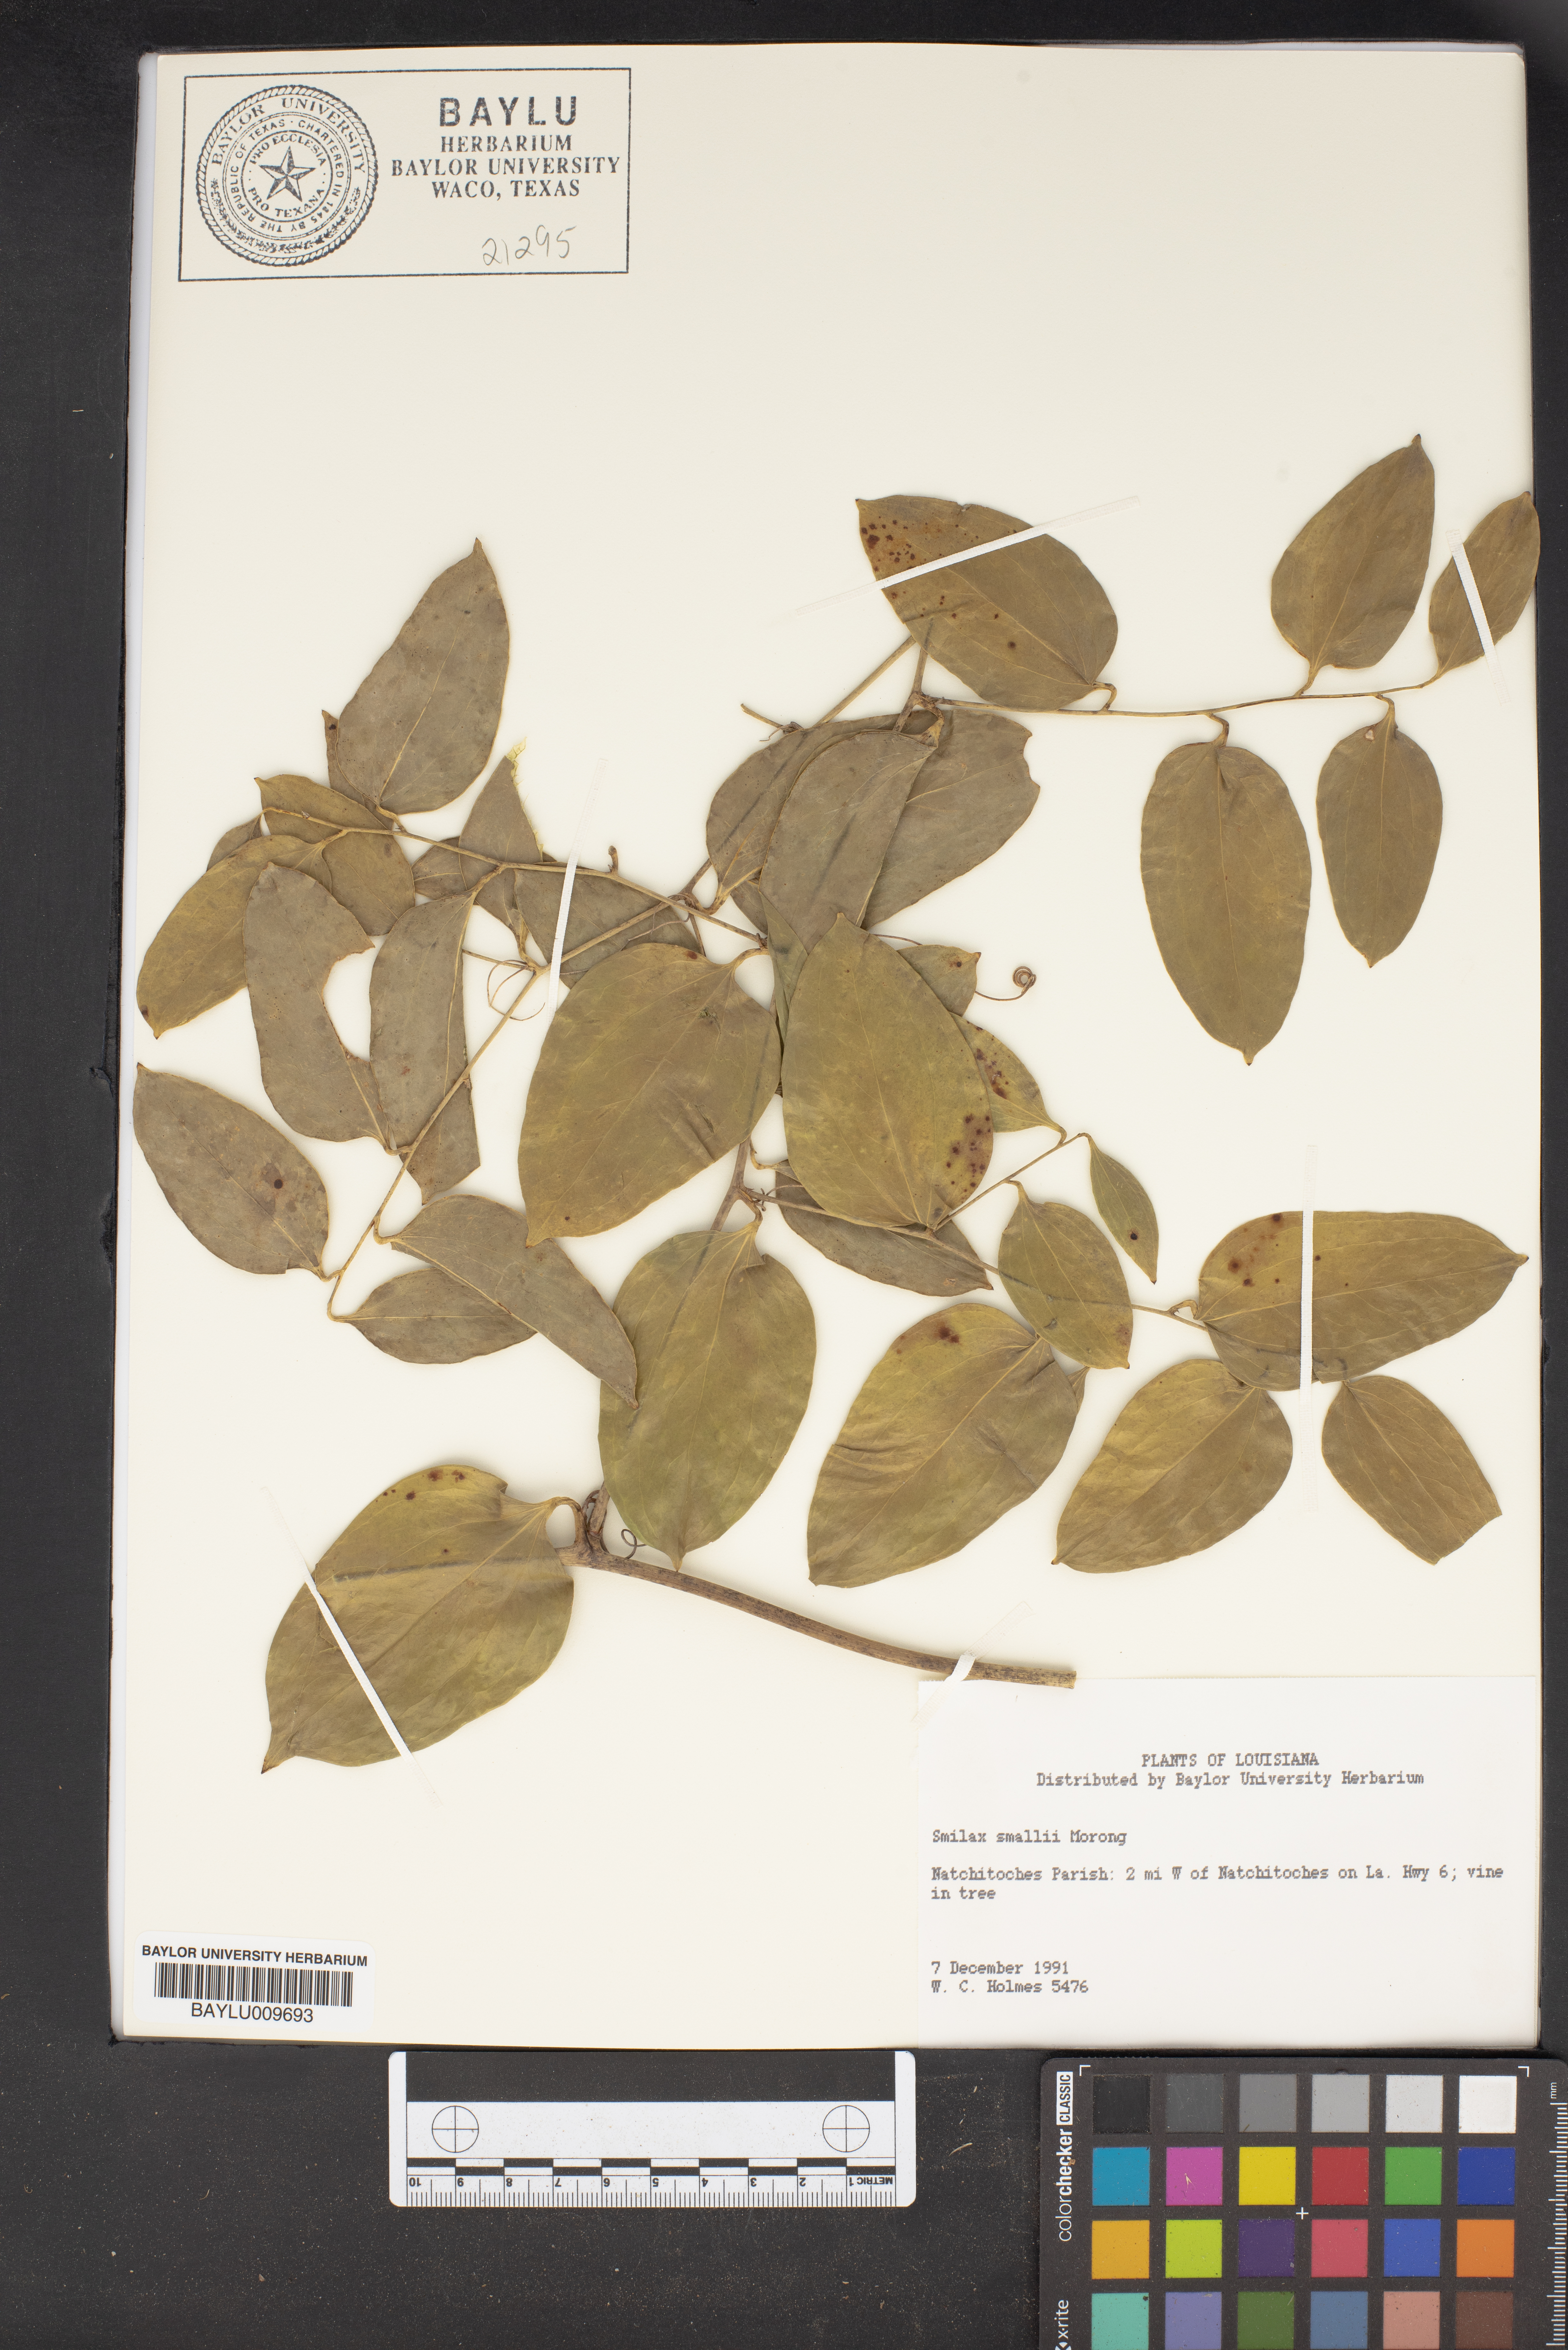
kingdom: Plantae
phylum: Tracheophyta
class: Liliopsida
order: Liliales
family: Smilacaceae
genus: Smilax
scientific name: Smilax maritima
